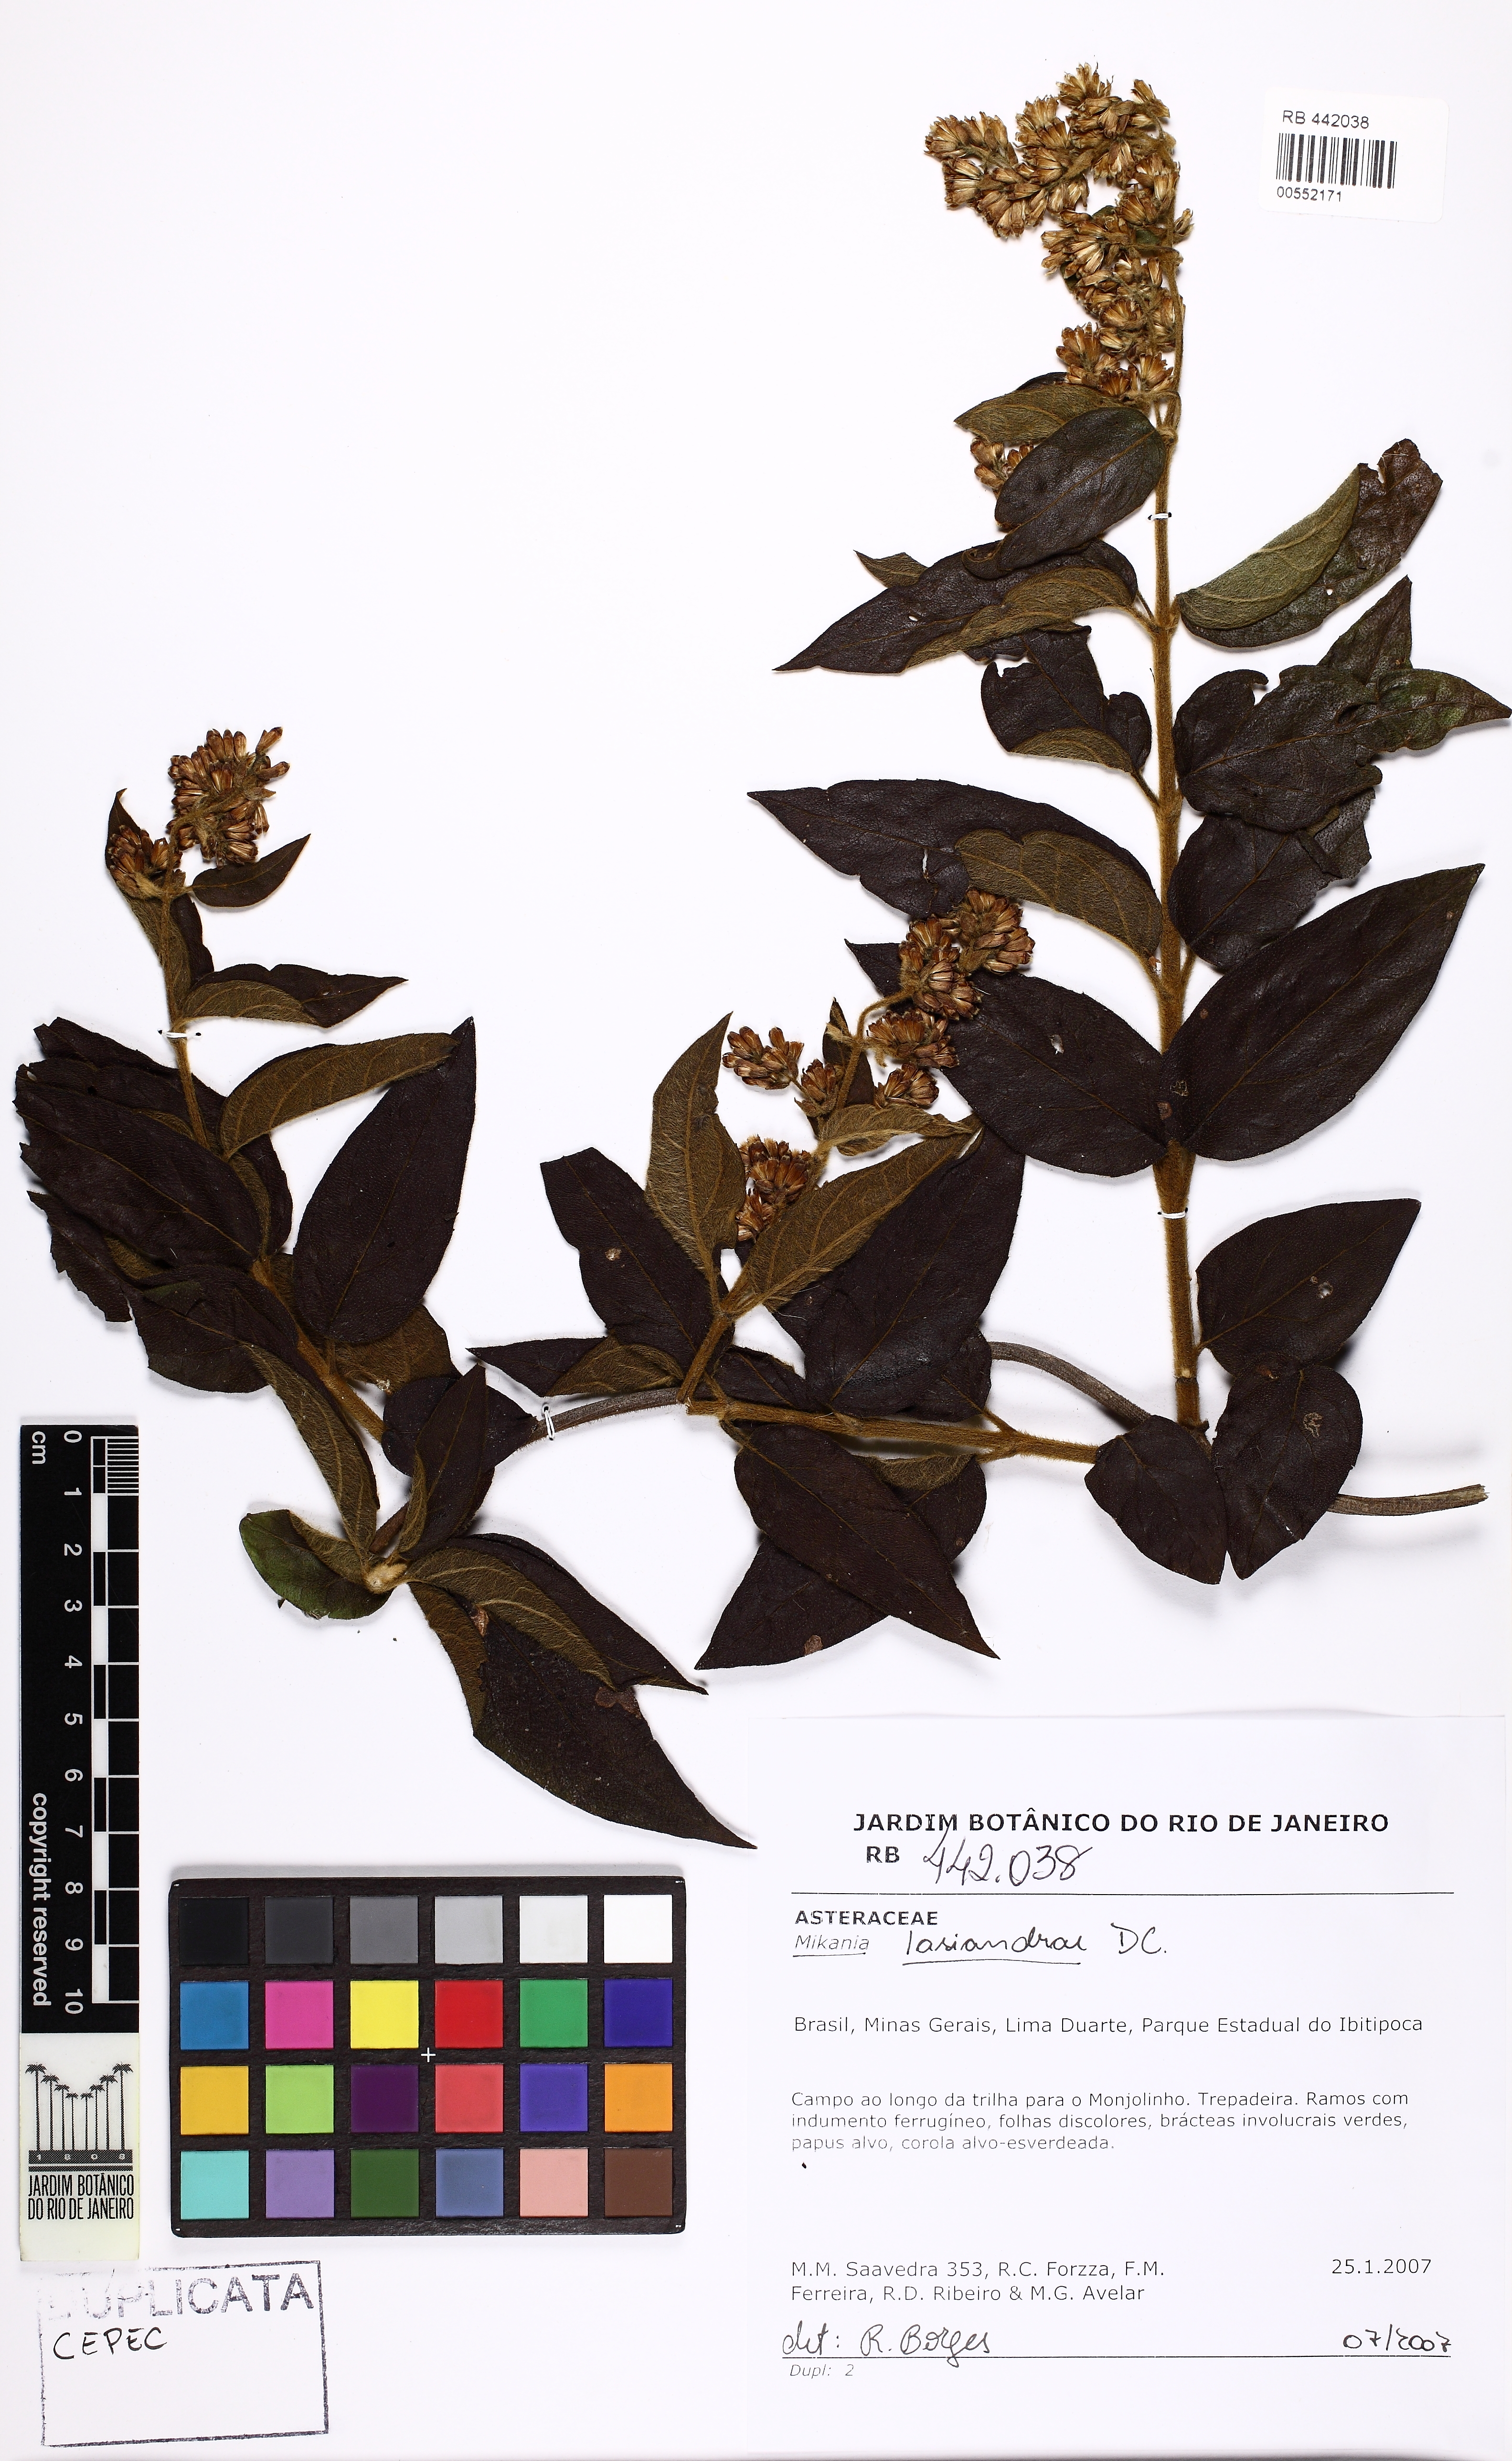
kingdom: Plantae
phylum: Tracheophyta
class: Magnoliopsida
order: Asterales
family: Asteraceae
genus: Mikania
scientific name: Mikania lasiandrae
